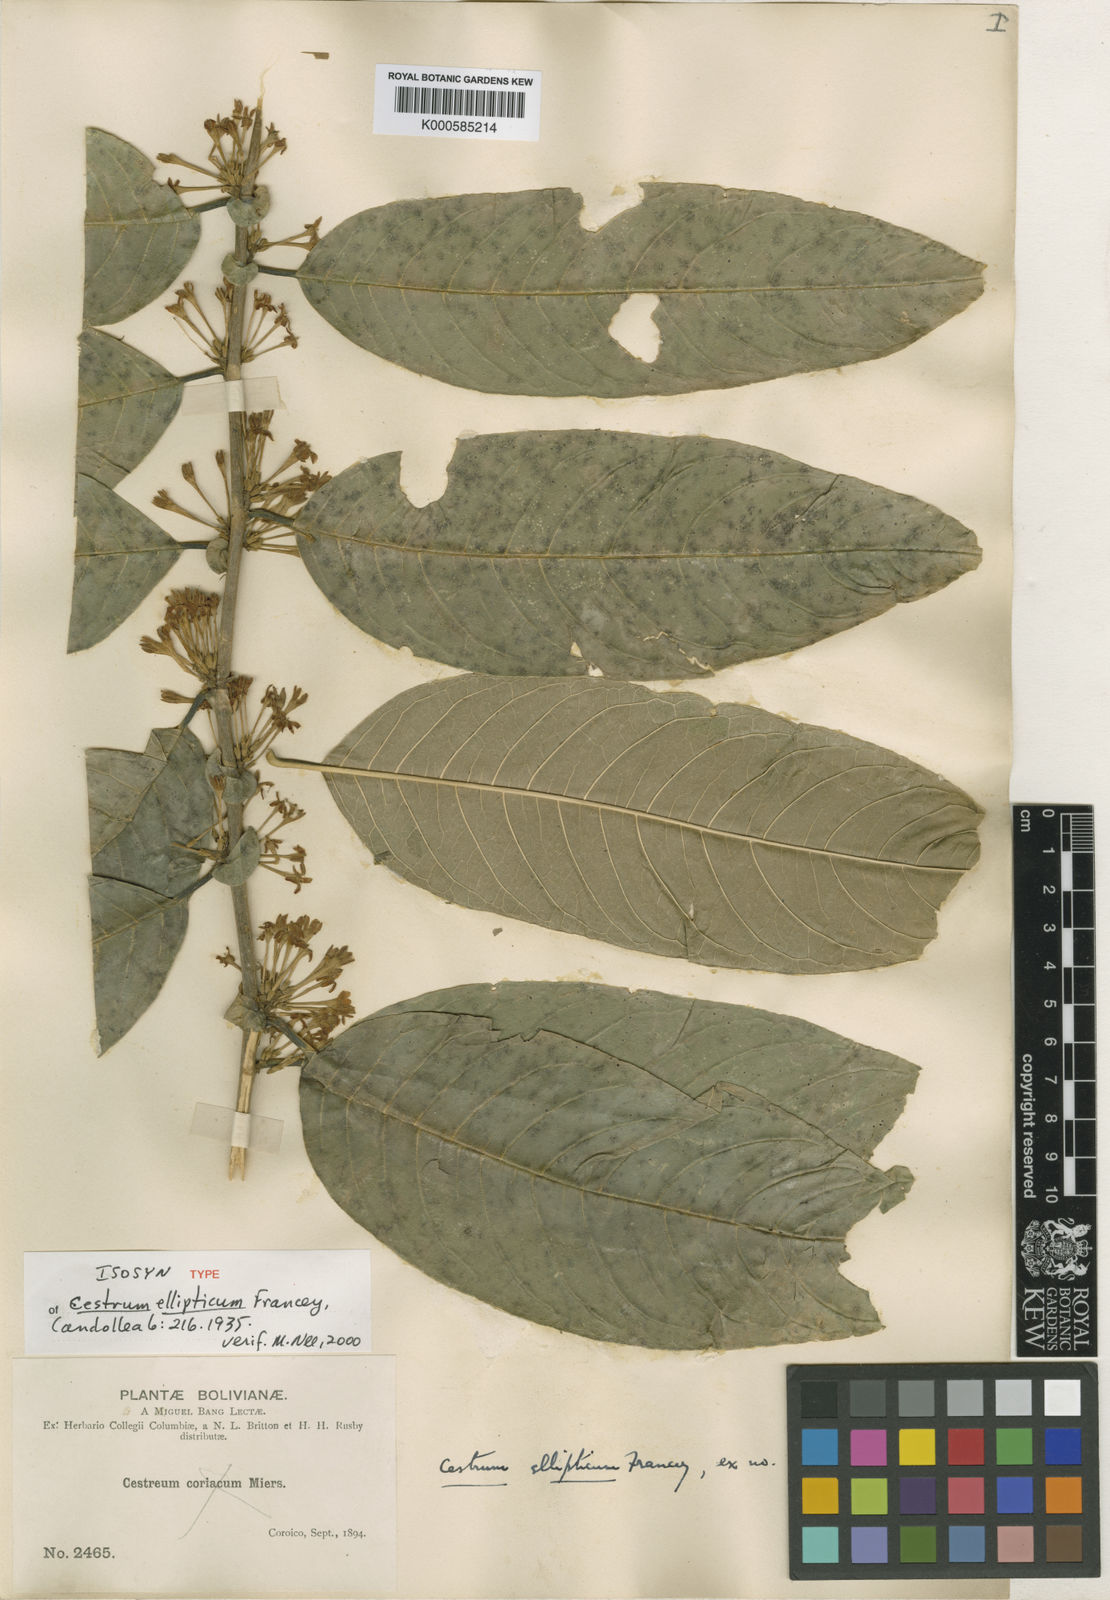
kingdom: Plantae
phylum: Tracheophyta
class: Magnoliopsida
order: Solanales
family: Solanaceae
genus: Cestrum
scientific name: Cestrum conglomeratum
